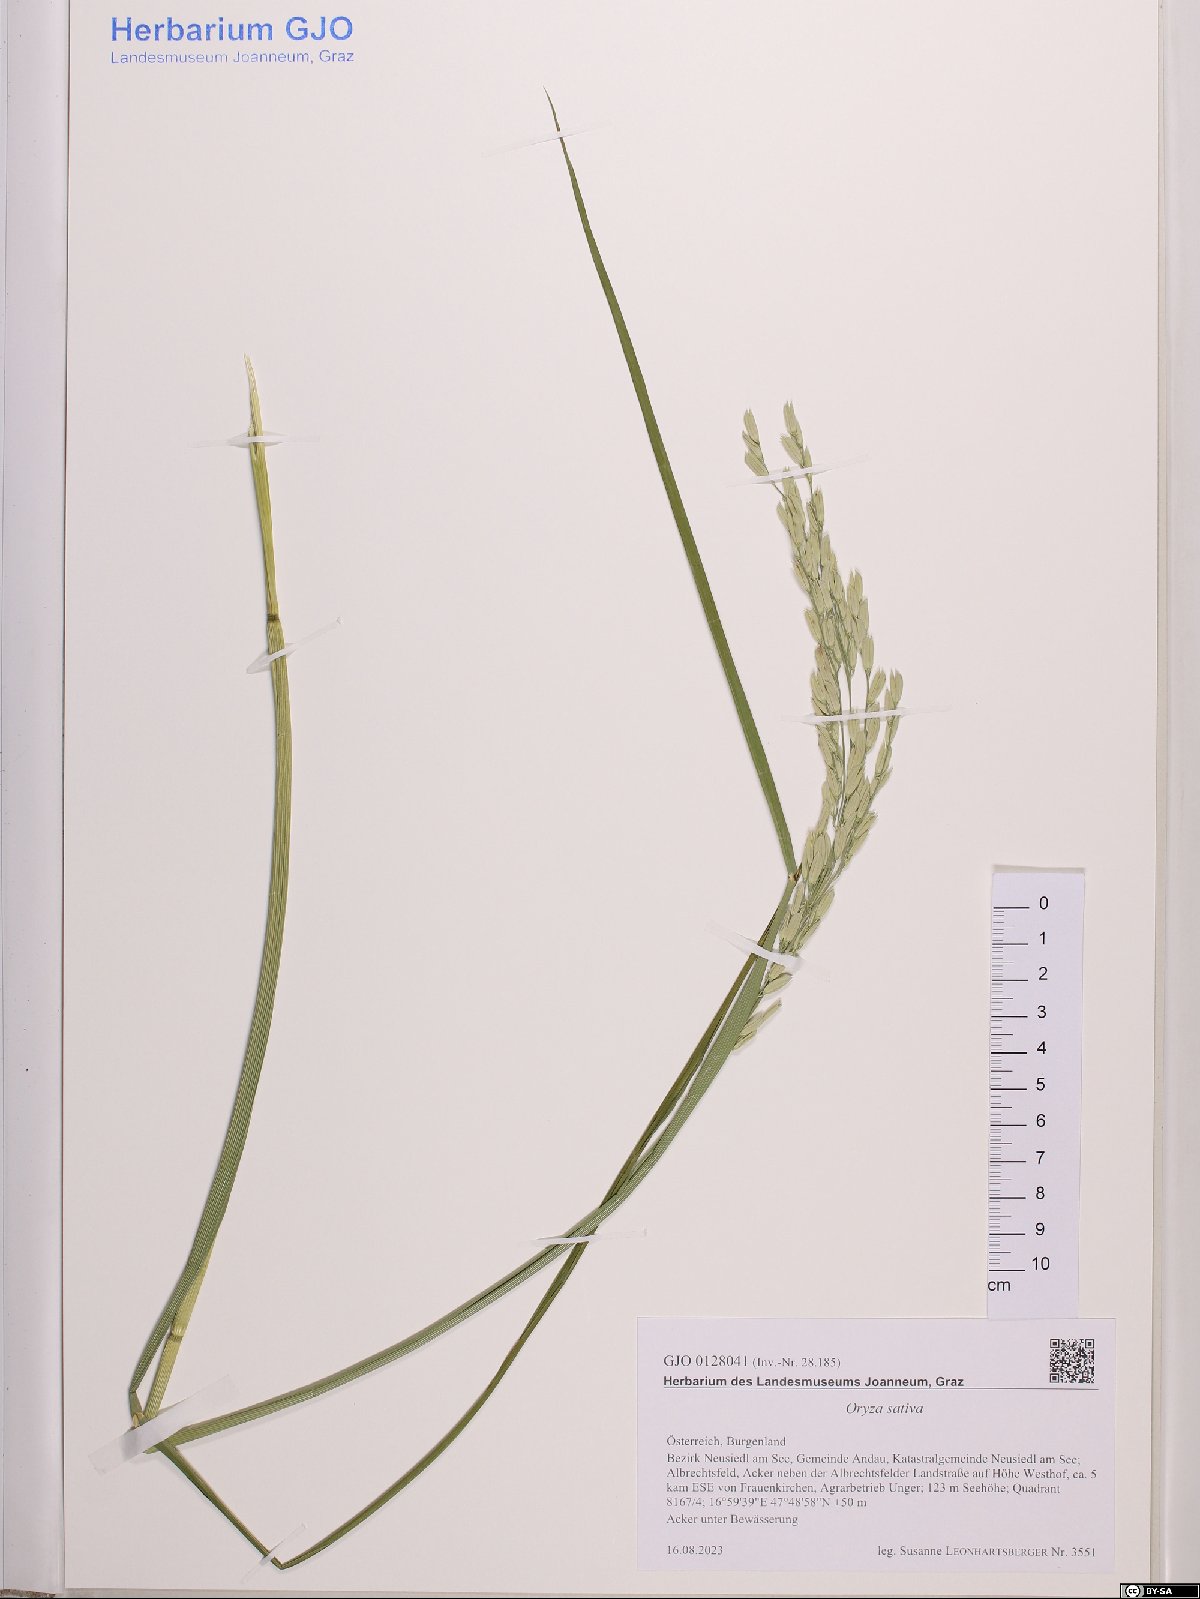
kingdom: Plantae
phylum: Tracheophyta
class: Liliopsida
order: Poales
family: Poaceae
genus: Oryza
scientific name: Oryza sativa
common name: Rice
